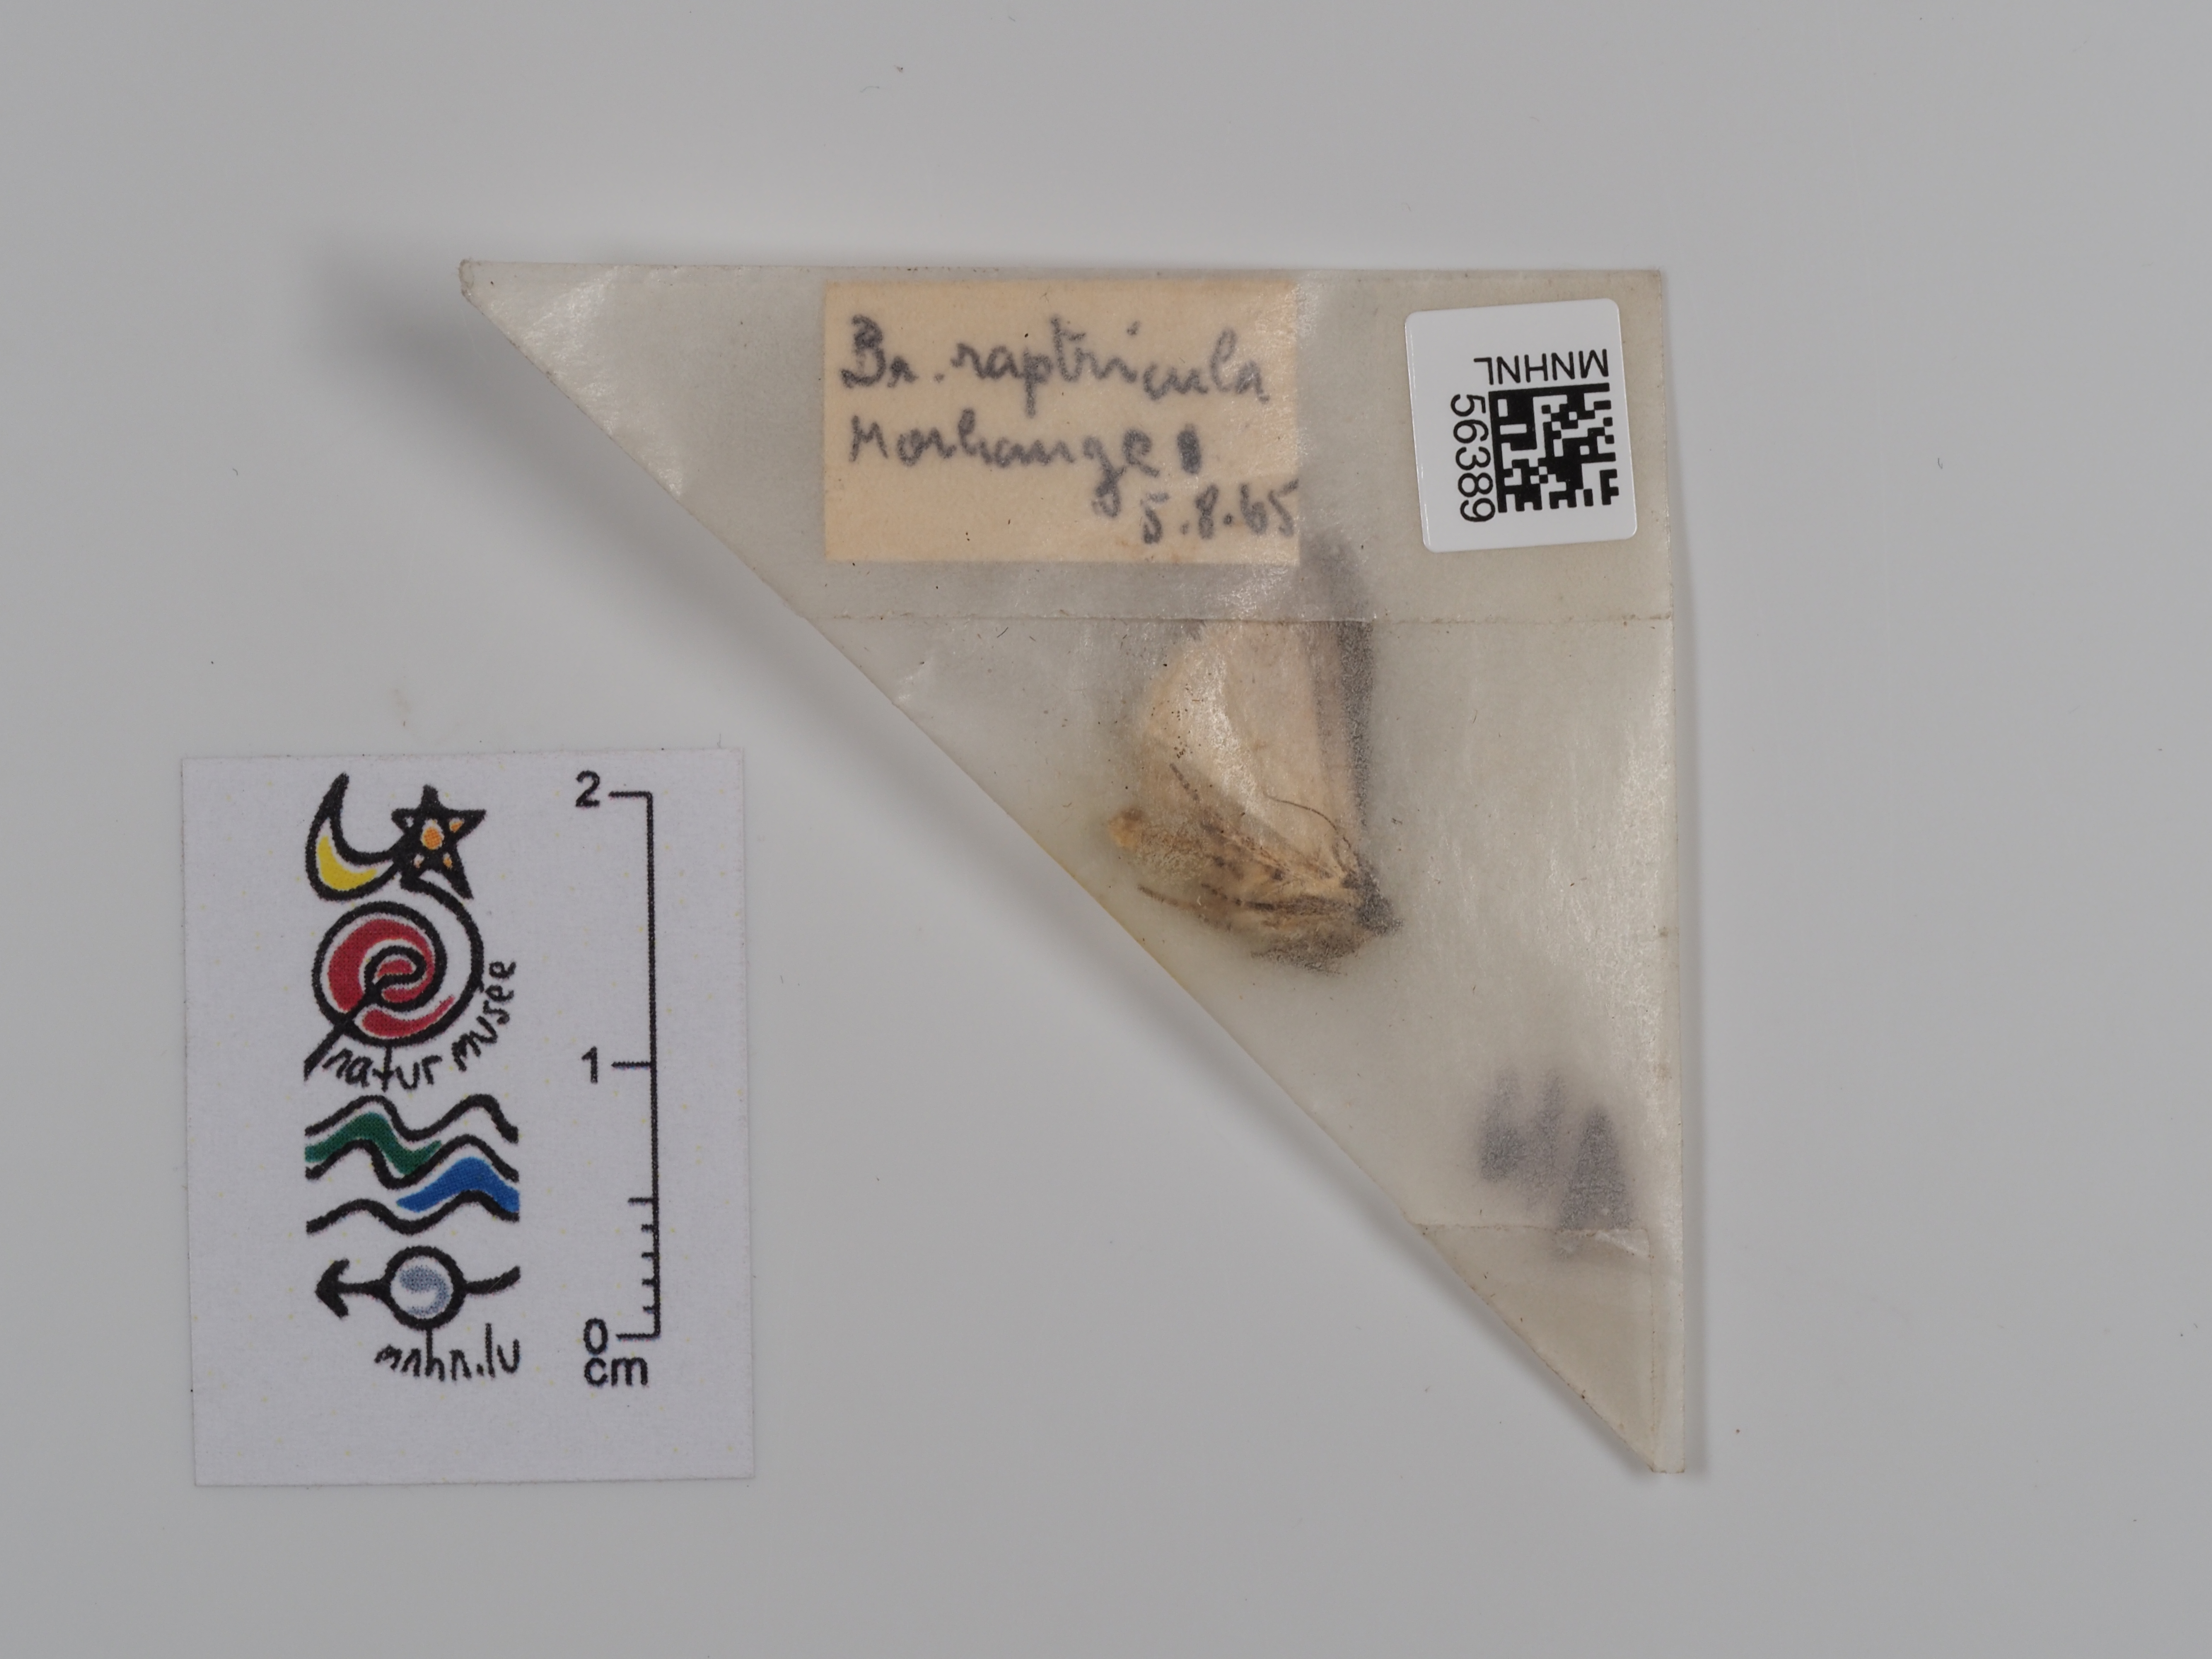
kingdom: Animalia
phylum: Arthropoda
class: Insecta
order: Lepidoptera
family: Noctuidae
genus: Bryophila
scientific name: Bryophila raptricula
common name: Marbled grey
